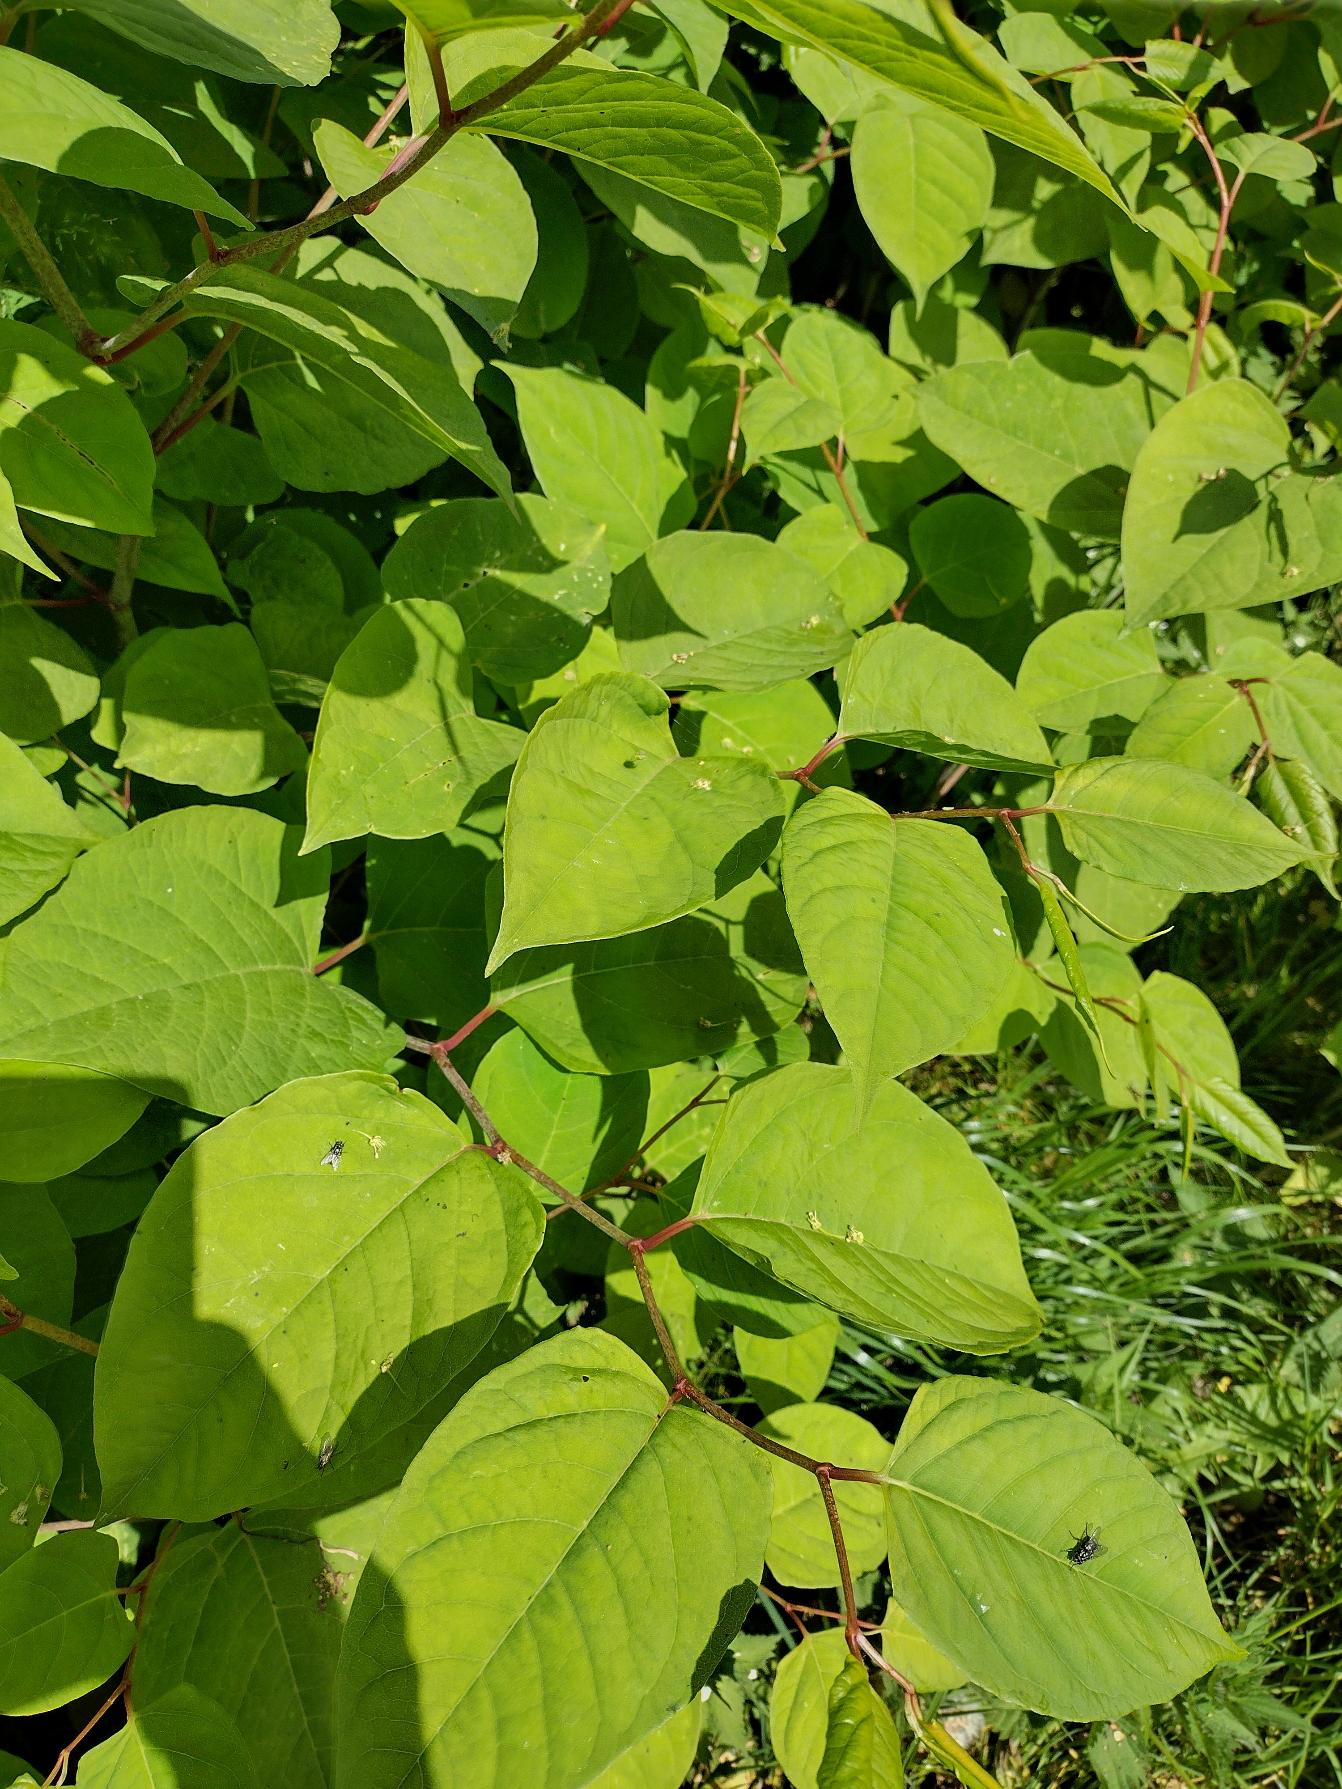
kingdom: Plantae
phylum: Tracheophyta
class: Magnoliopsida
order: Caryophyllales
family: Polygonaceae
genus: Reynoutria
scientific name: Reynoutria japonica
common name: Japan-pileurt
